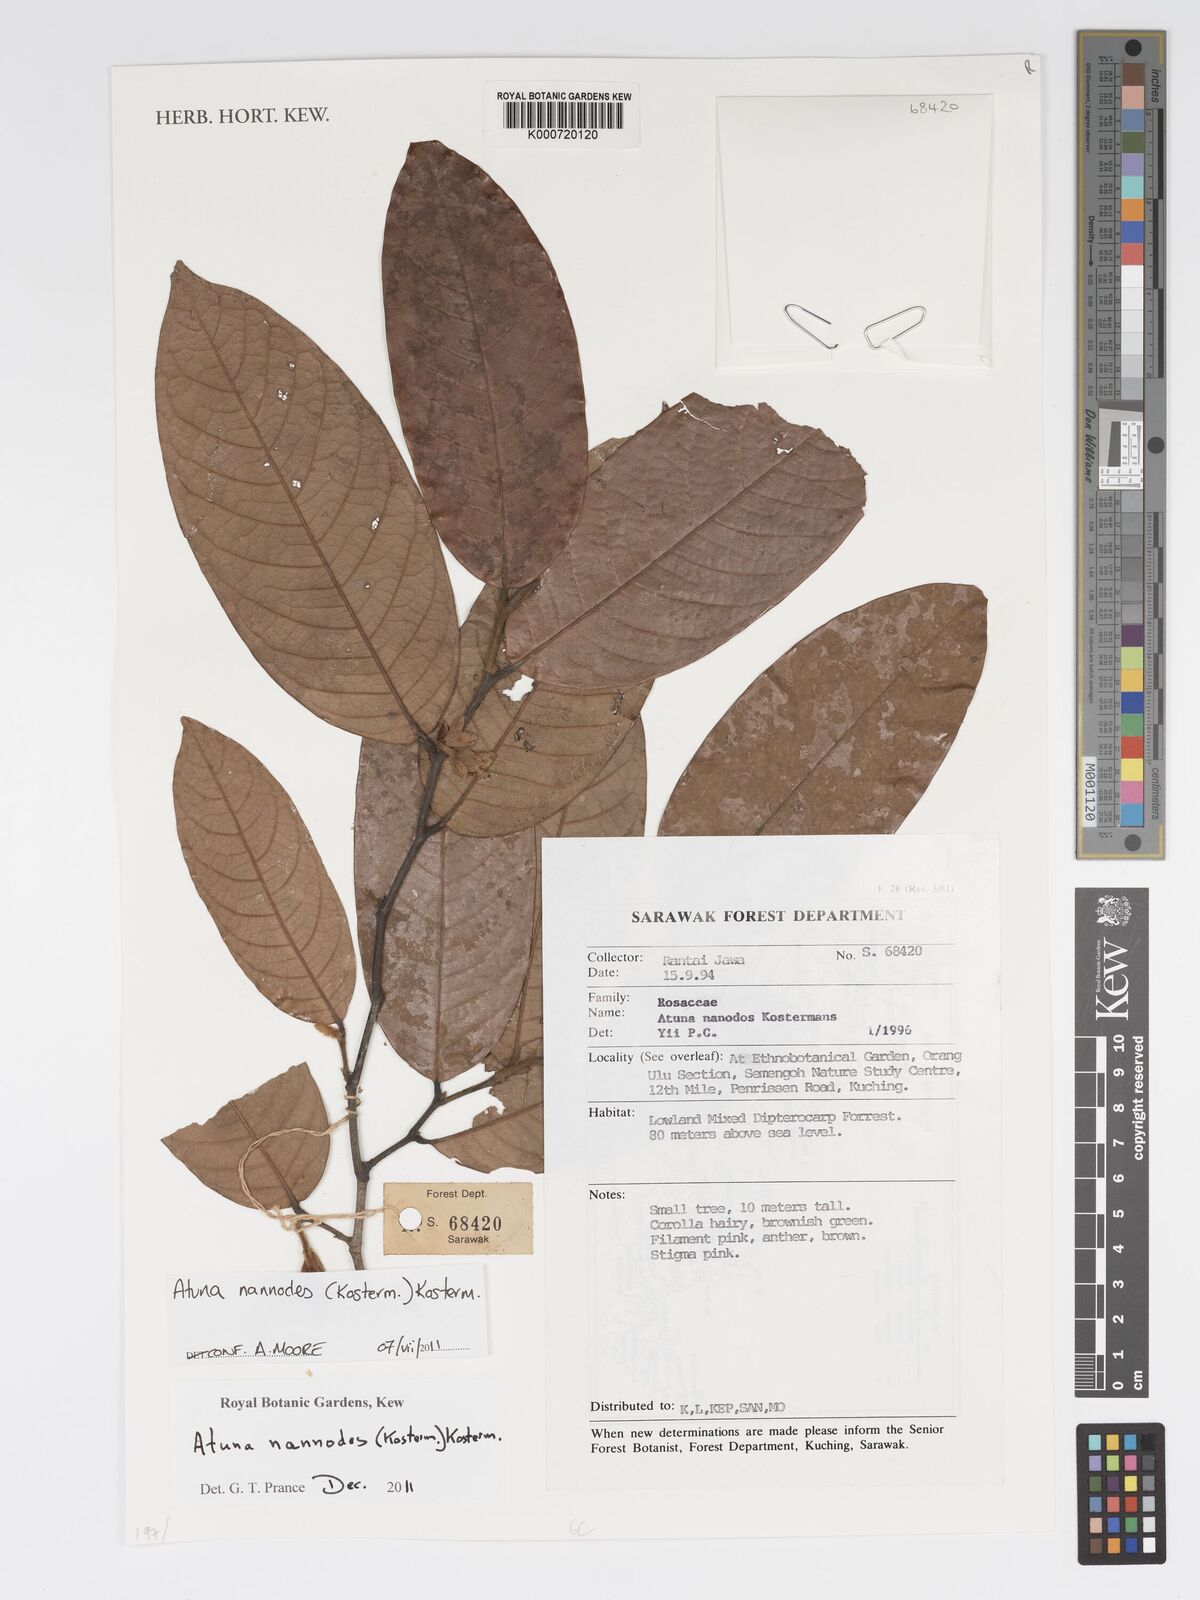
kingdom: Plantae
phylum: Tracheophyta
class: Magnoliopsida
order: Malpighiales
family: Chrysobalanaceae
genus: Atuna
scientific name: Atuna nannodes
